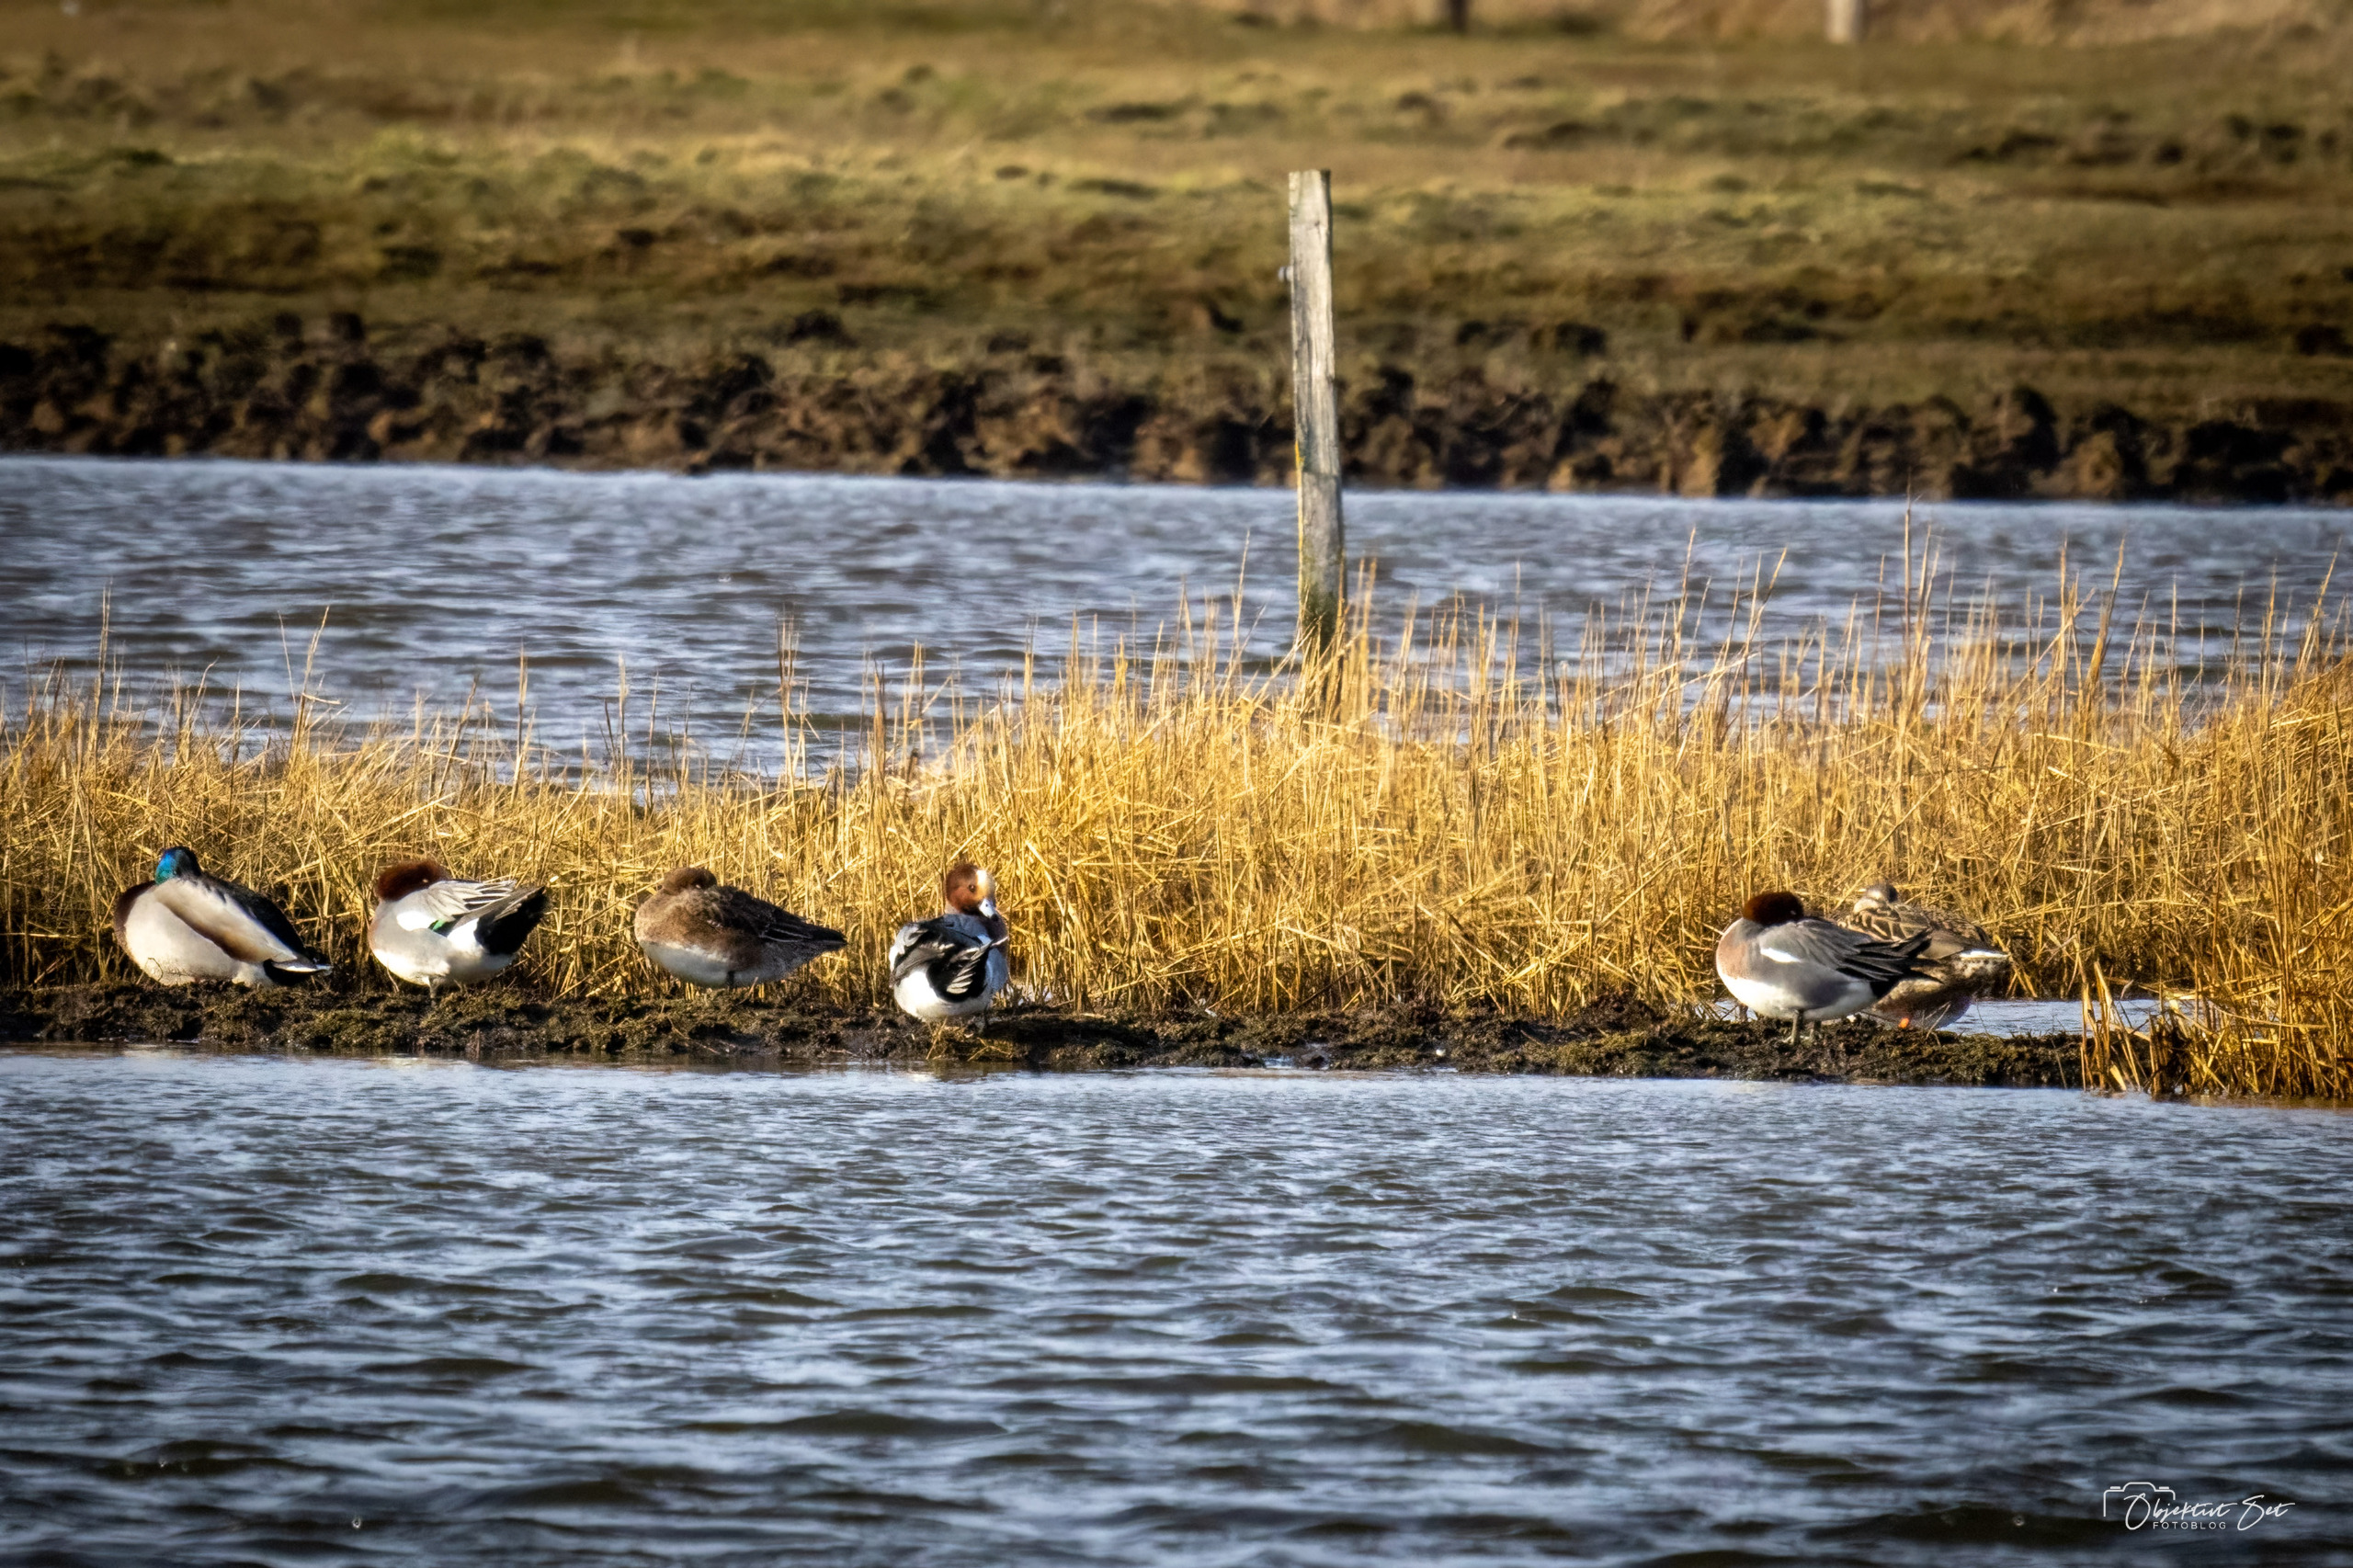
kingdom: Animalia
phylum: Chordata
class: Aves
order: Anseriformes
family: Anatidae
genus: Mareca
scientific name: Mareca penelope
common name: Pibeand
